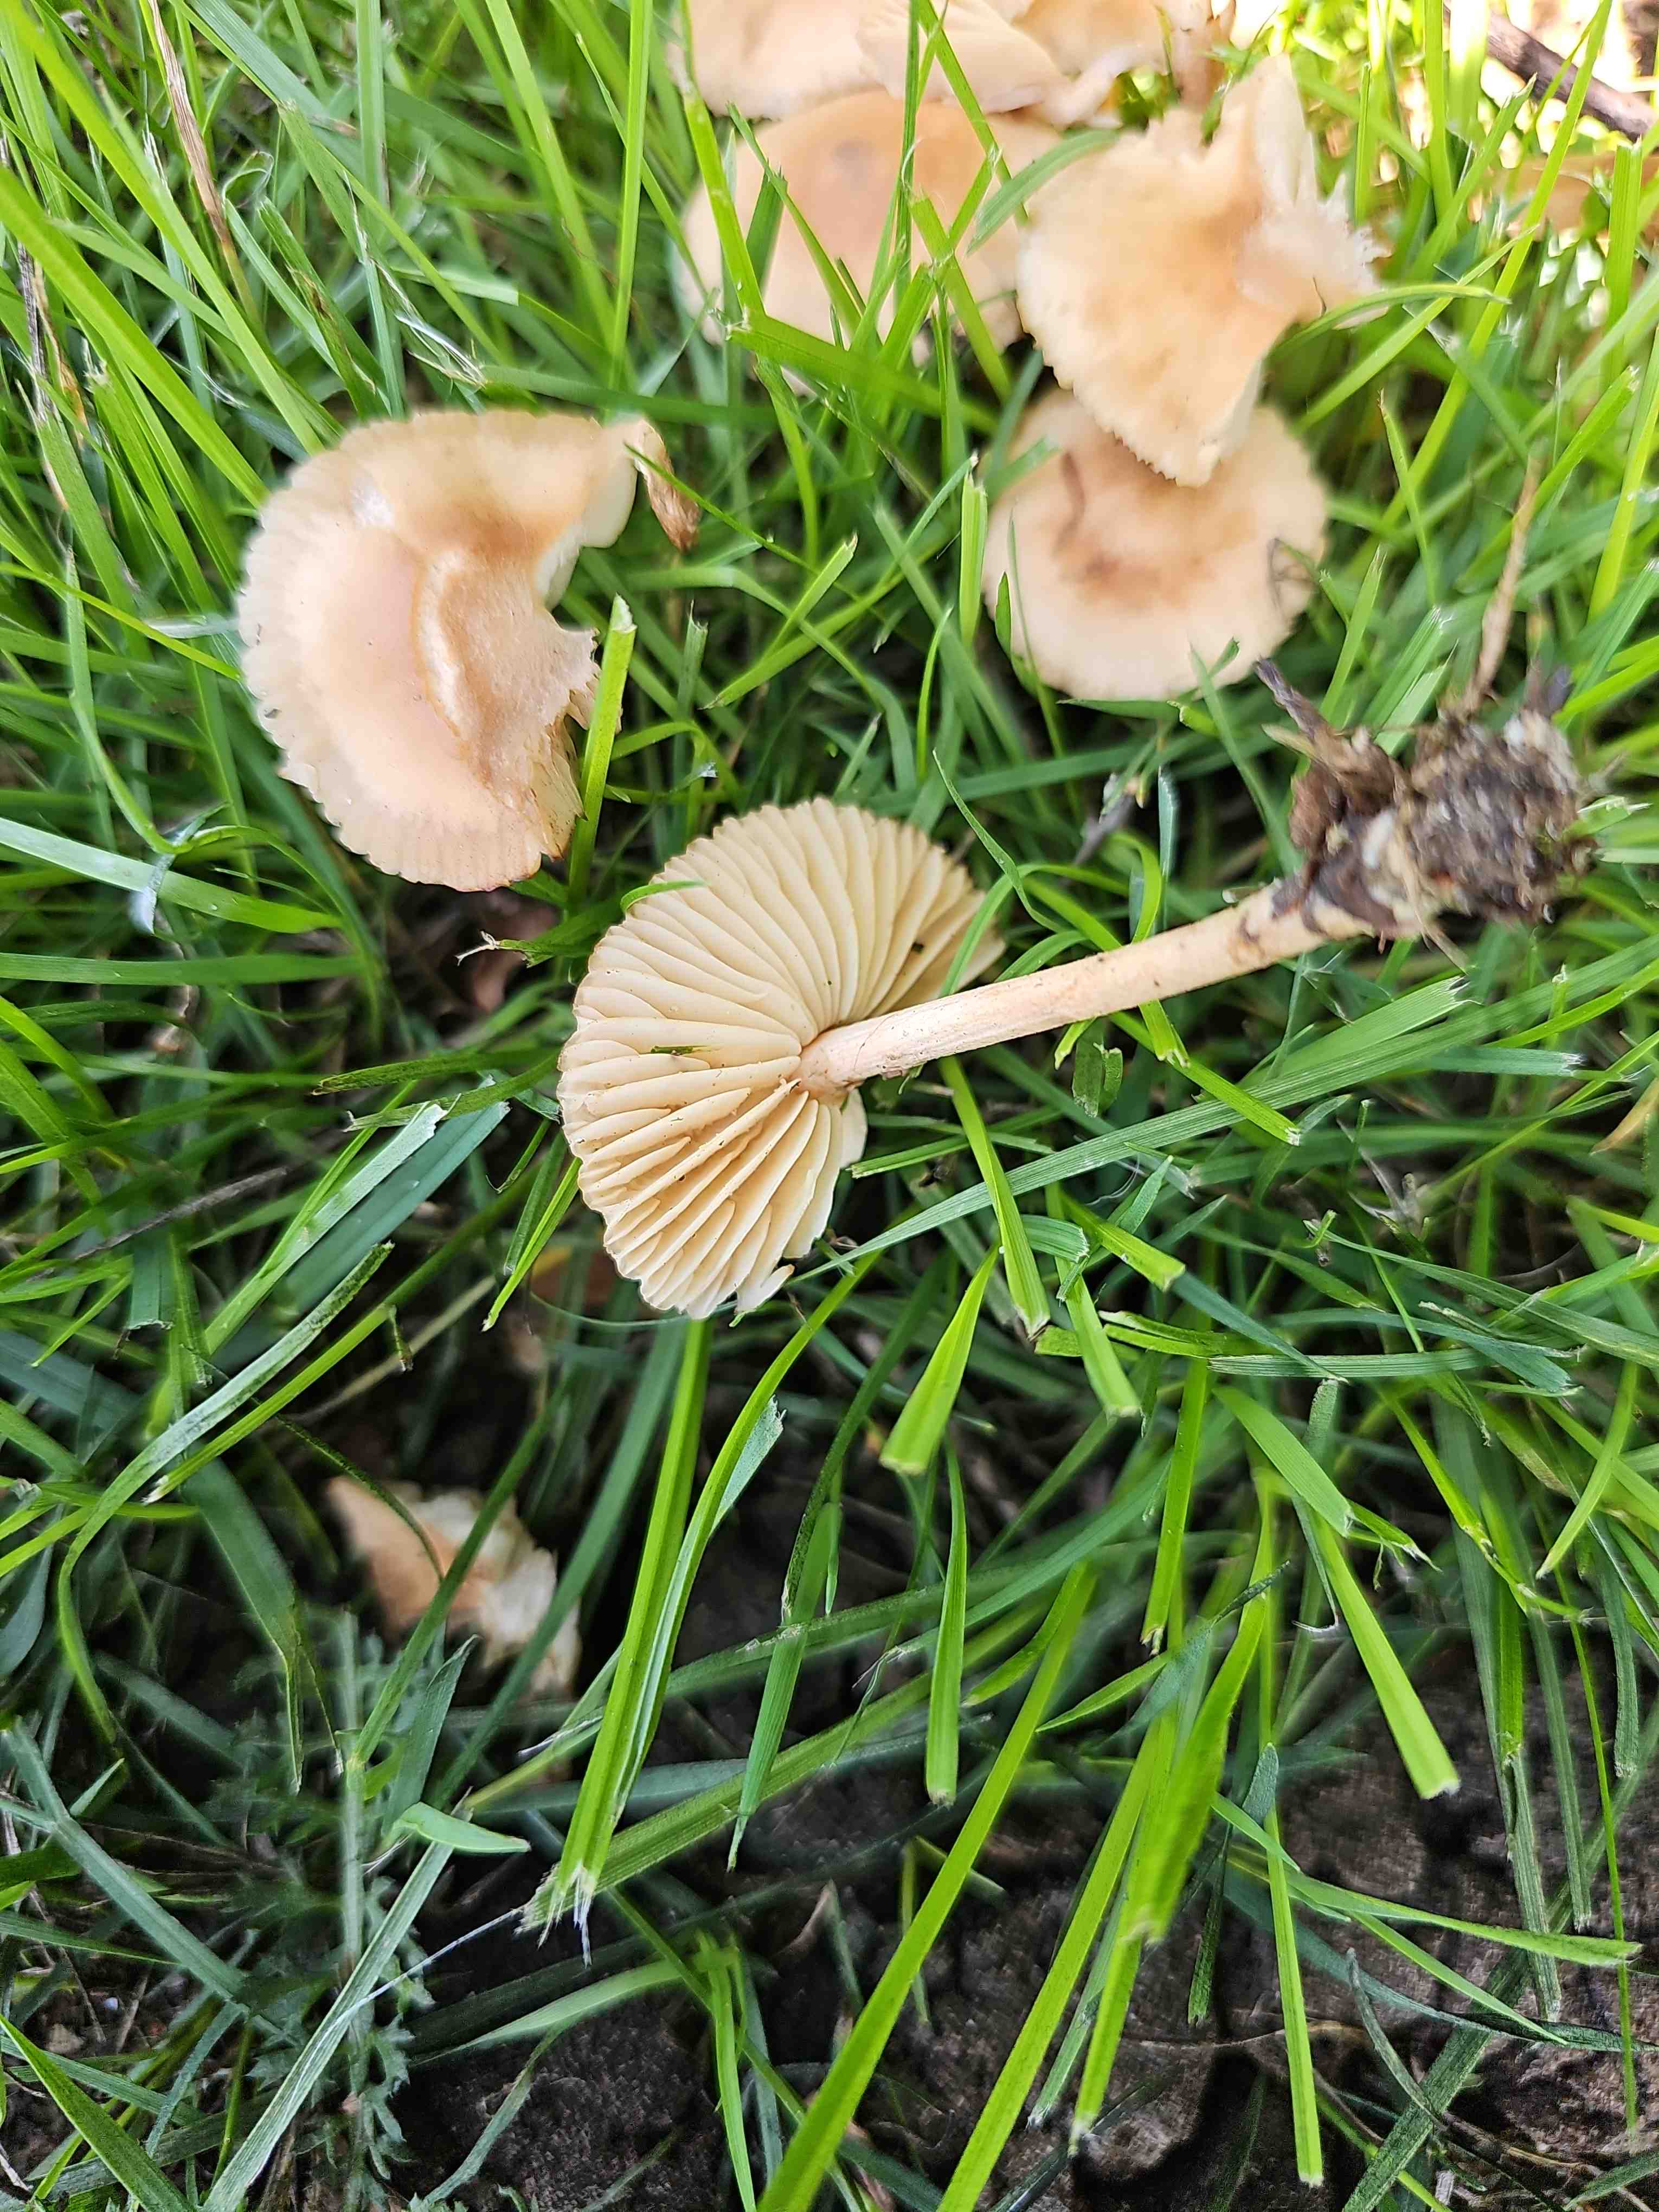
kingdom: Fungi
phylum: Basidiomycota
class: Agaricomycetes
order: Agaricales
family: Marasmiaceae
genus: Marasmius
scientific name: Marasmius oreades
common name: elledans-bruskhat
